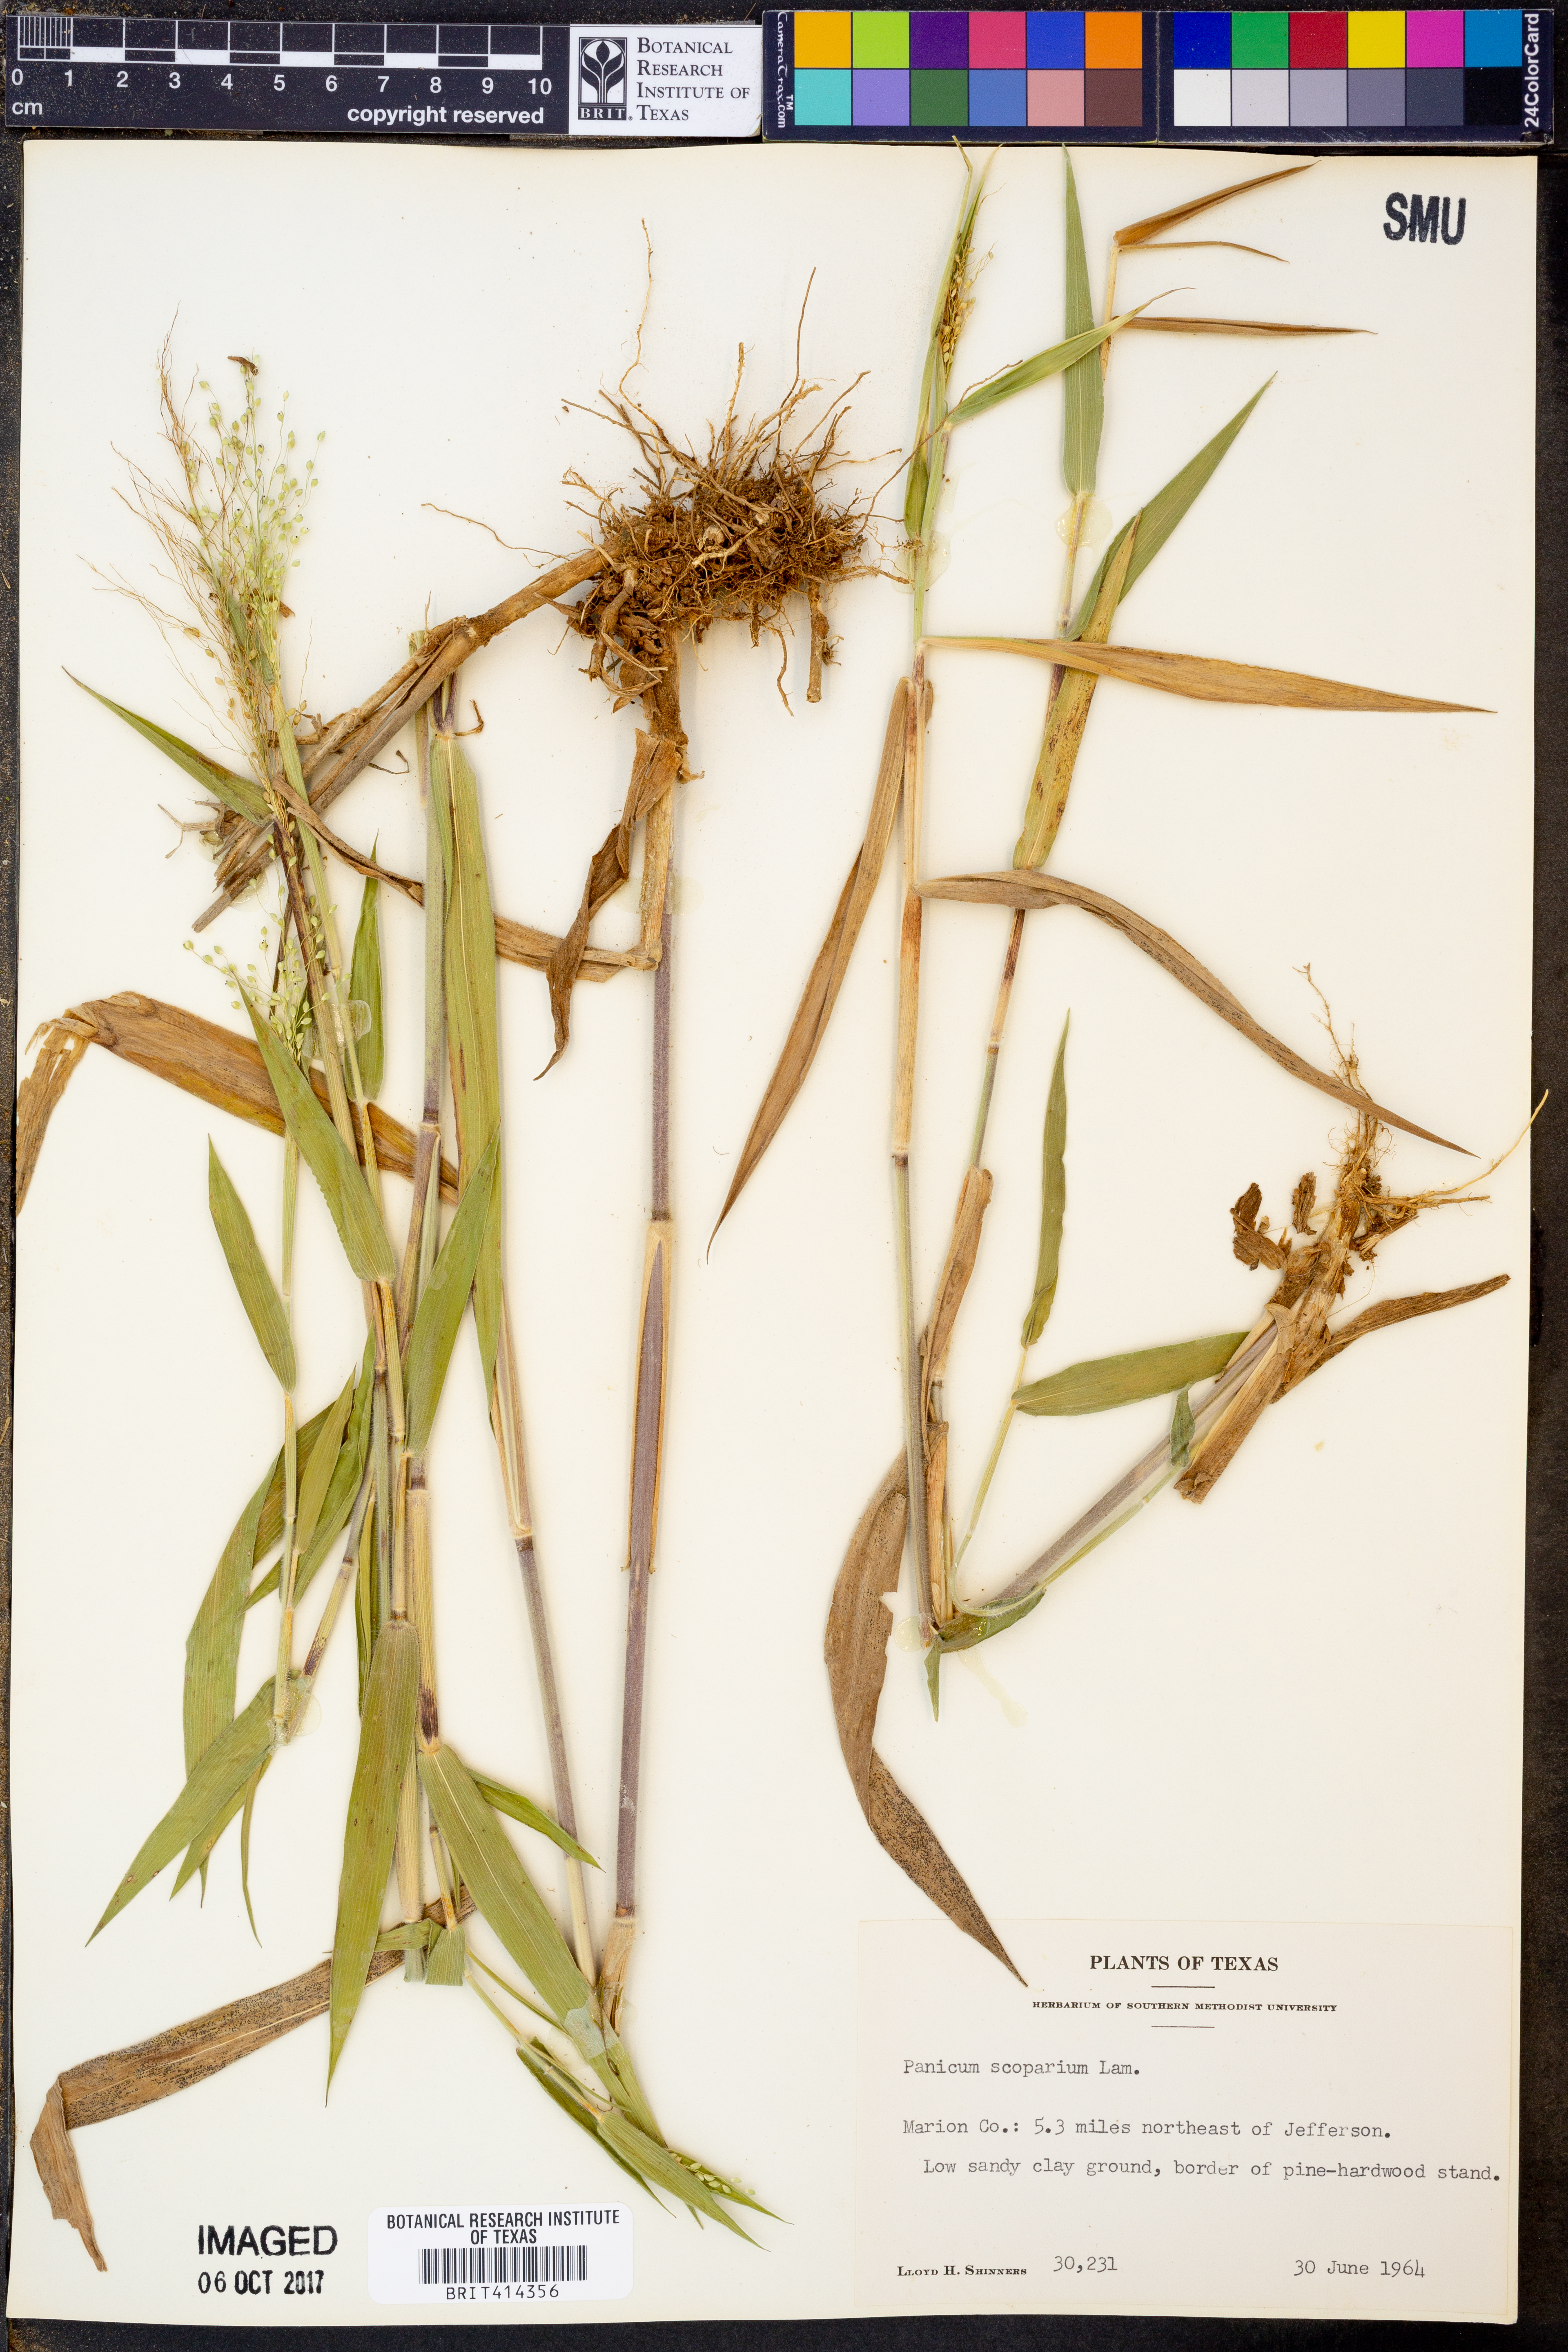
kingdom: Plantae
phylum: Tracheophyta
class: Liliopsida
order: Poales
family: Poaceae
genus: Dichanthelium
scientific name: Dichanthelium scribnerianum
